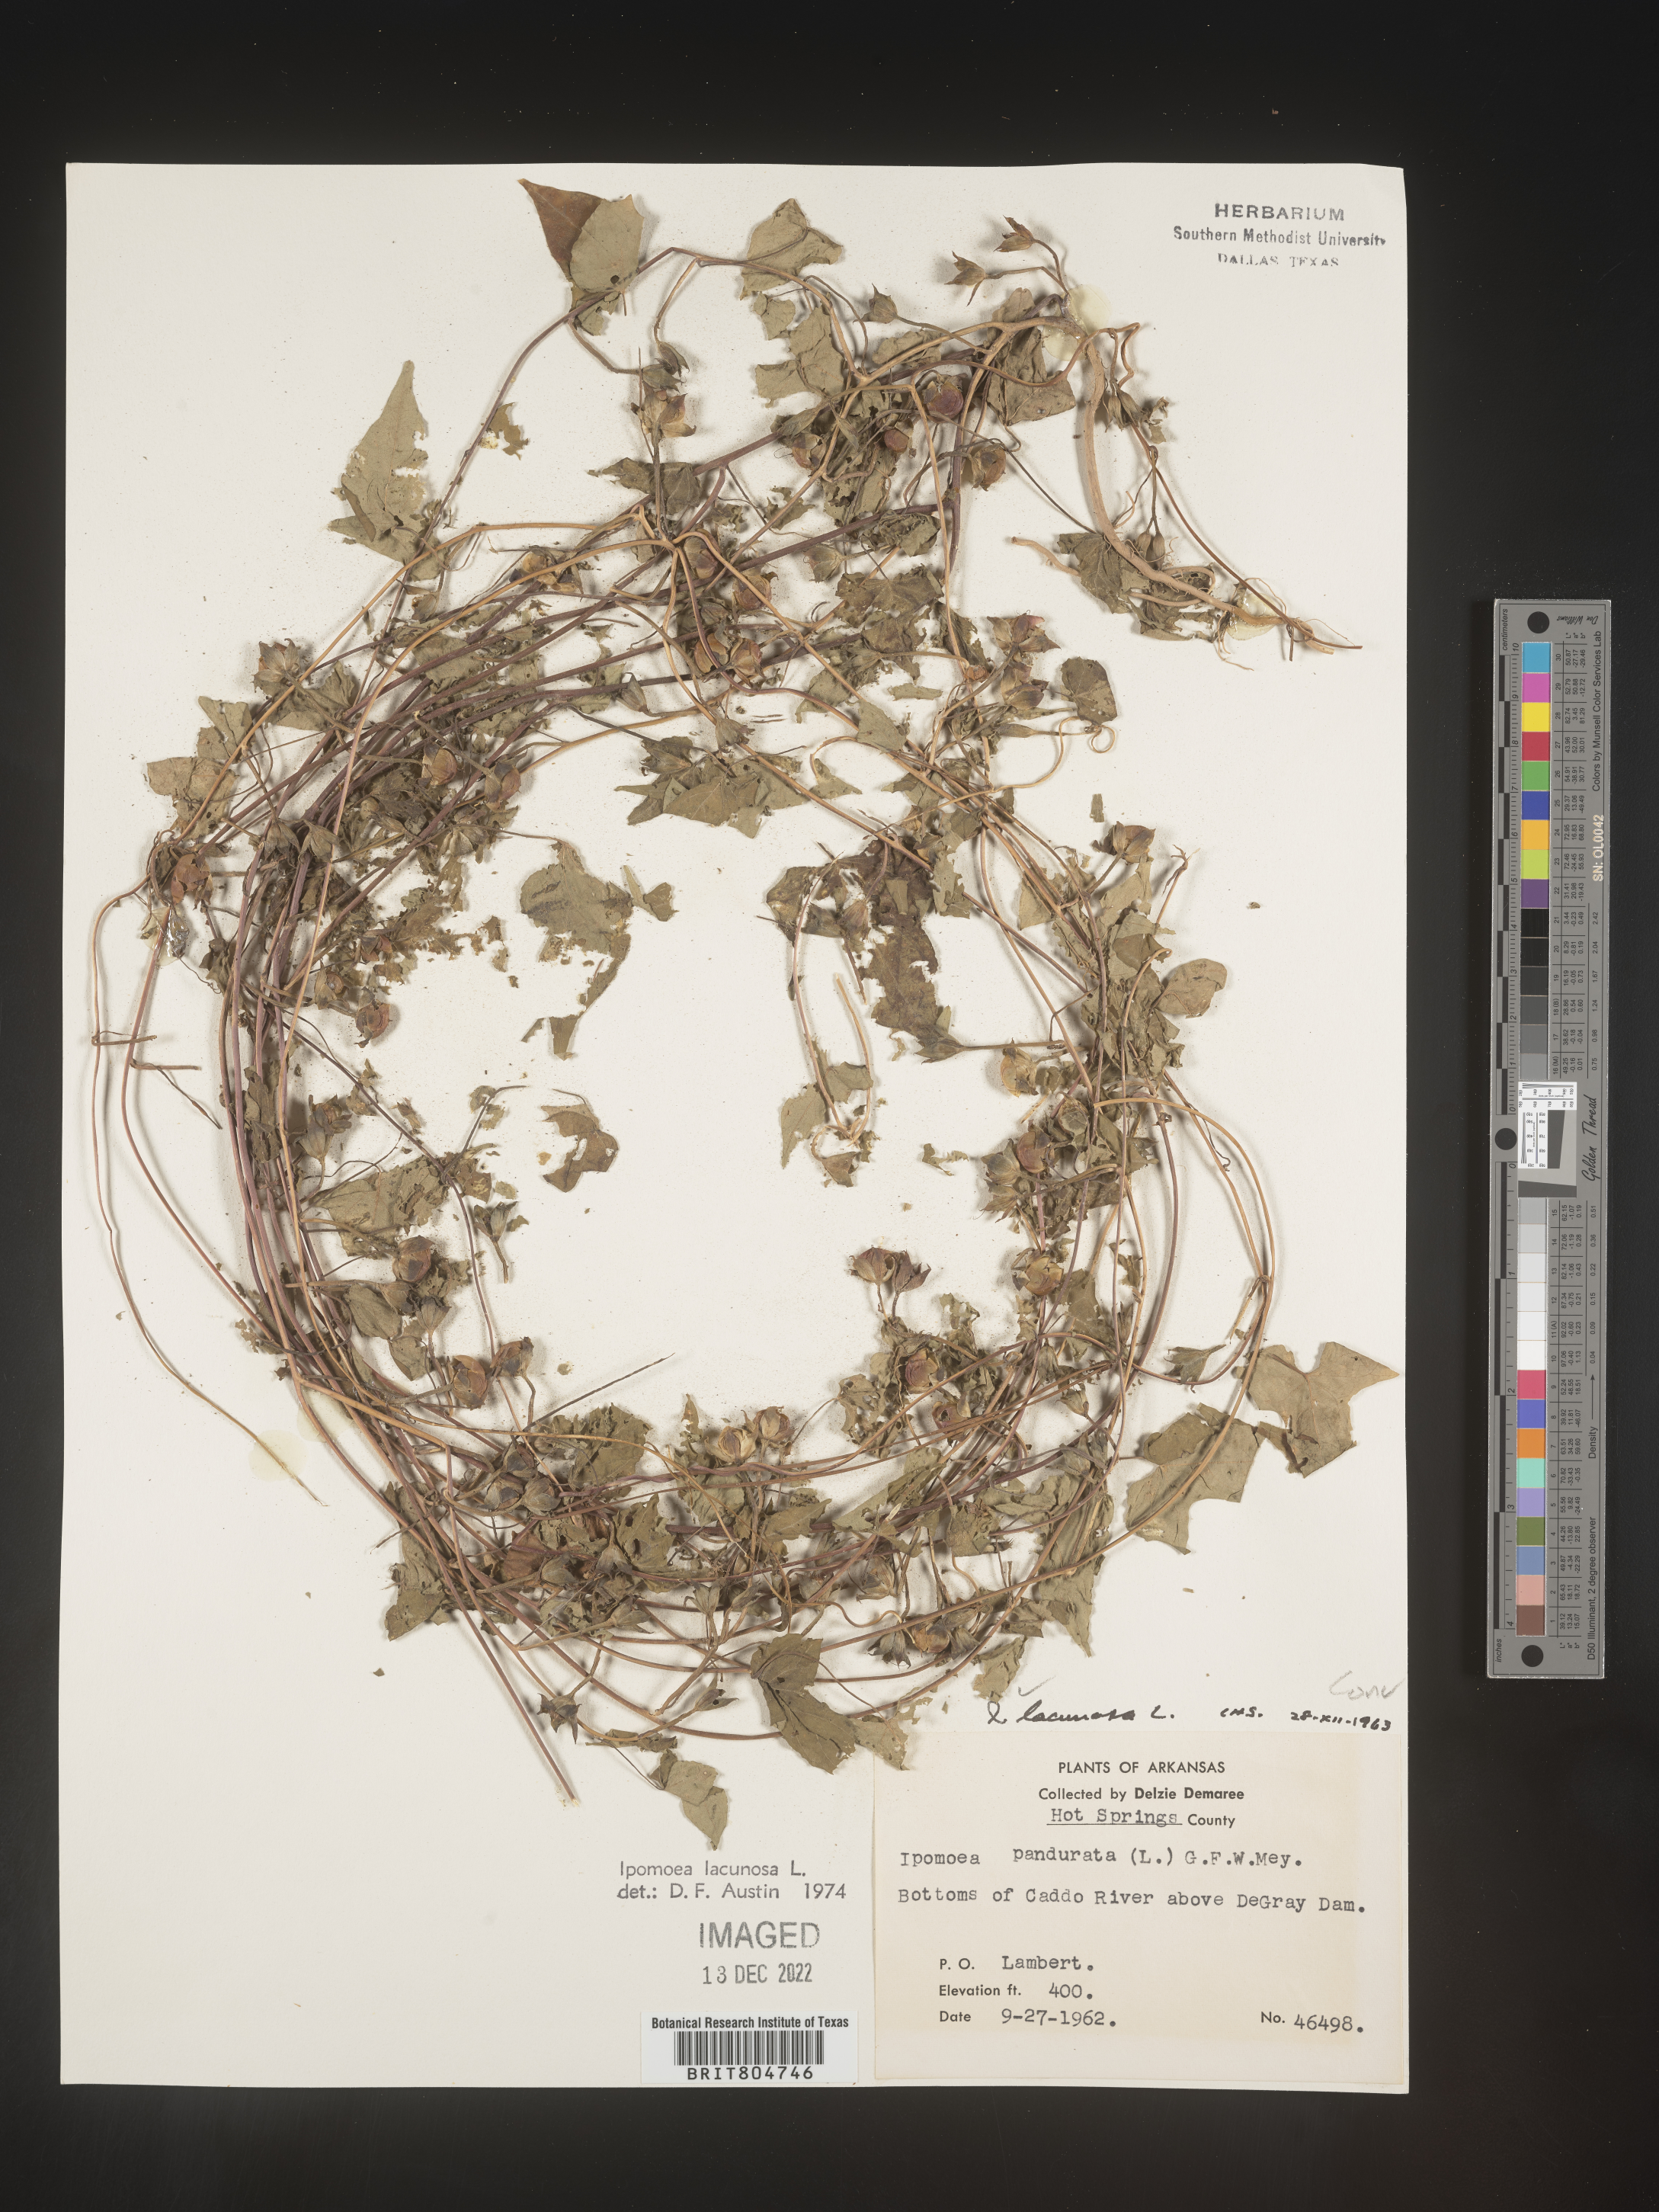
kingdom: Plantae
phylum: Tracheophyta
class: Magnoliopsida
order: Solanales
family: Convolvulaceae
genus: Ipomoea
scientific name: Ipomoea lacunosa
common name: White morning-glory
